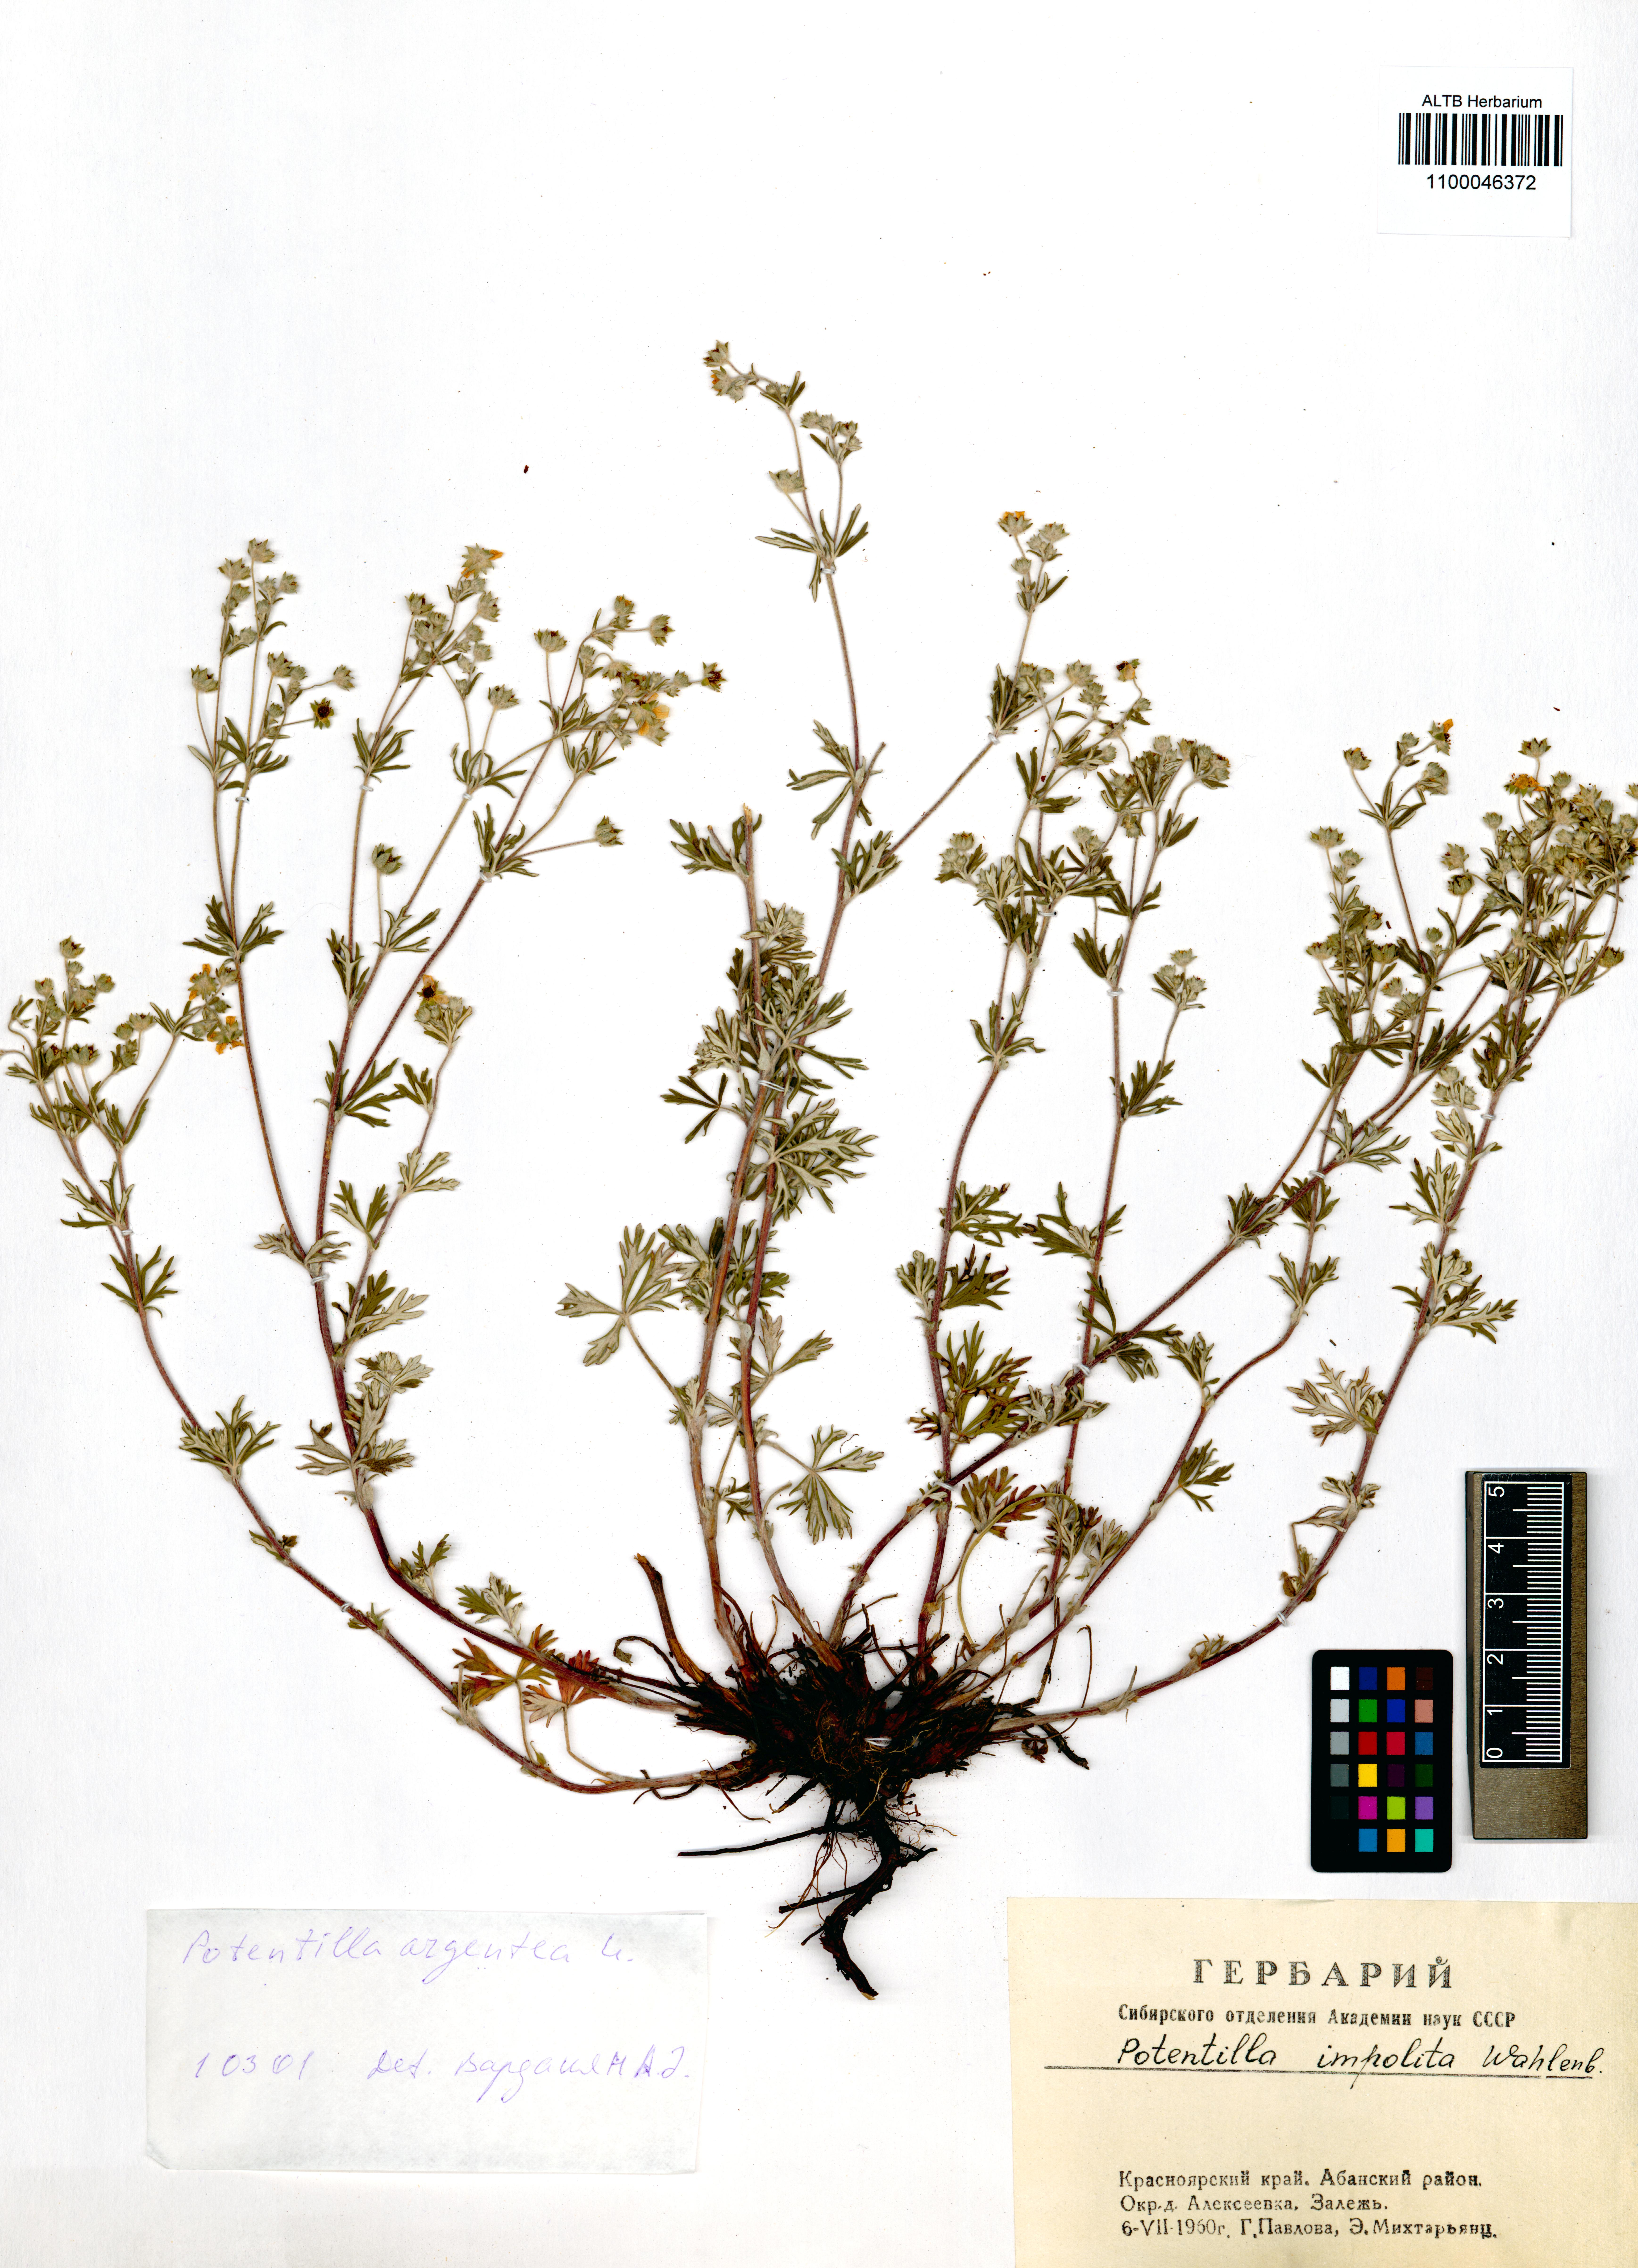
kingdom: Plantae
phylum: Tracheophyta
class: Magnoliopsida
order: Rosales
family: Rosaceae
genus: Potentilla
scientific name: Potentilla argentea
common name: Hoary cinquefoil
